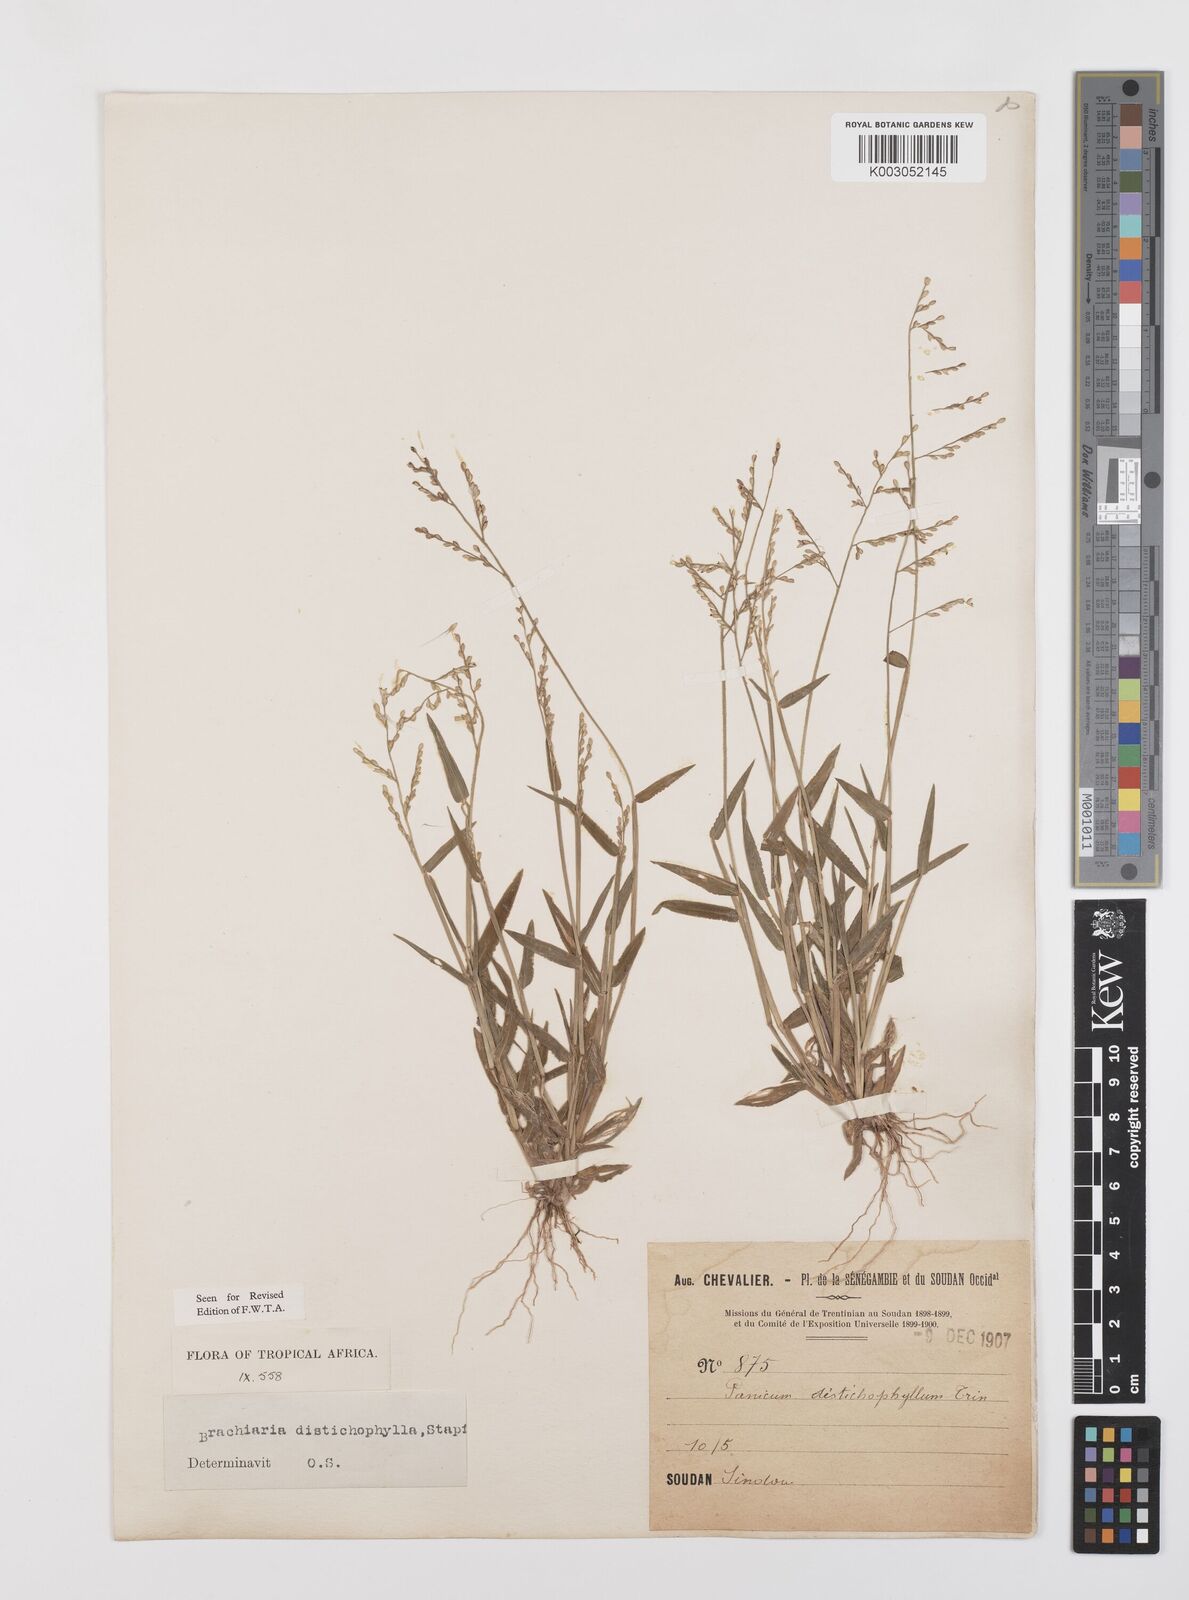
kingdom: Plantae
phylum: Tracheophyta
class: Liliopsida
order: Poales
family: Poaceae
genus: Urochloa
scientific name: Urochloa villosa
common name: Hairy signalgrass
